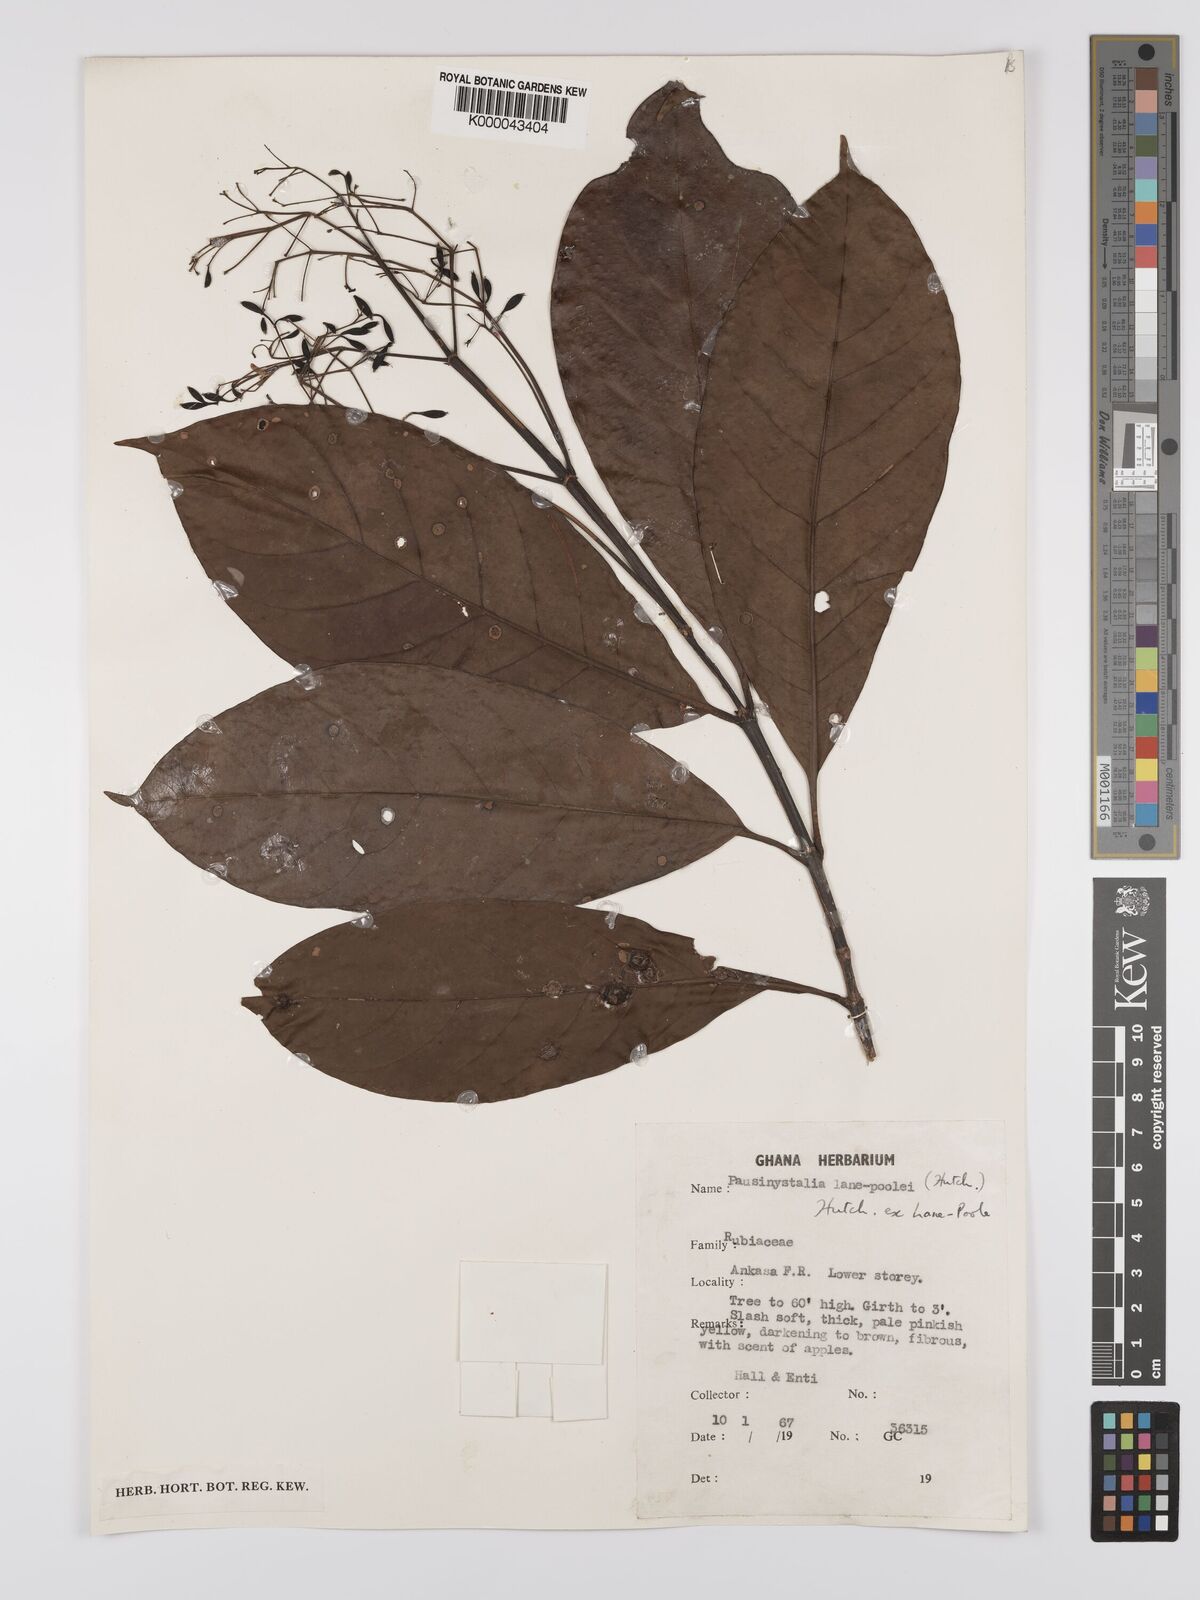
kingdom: Plantae
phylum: Tracheophyta
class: Magnoliopsida
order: Gentianales
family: Rubiaceae
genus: Corynanthe
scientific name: Corynanthe lane-poolei
